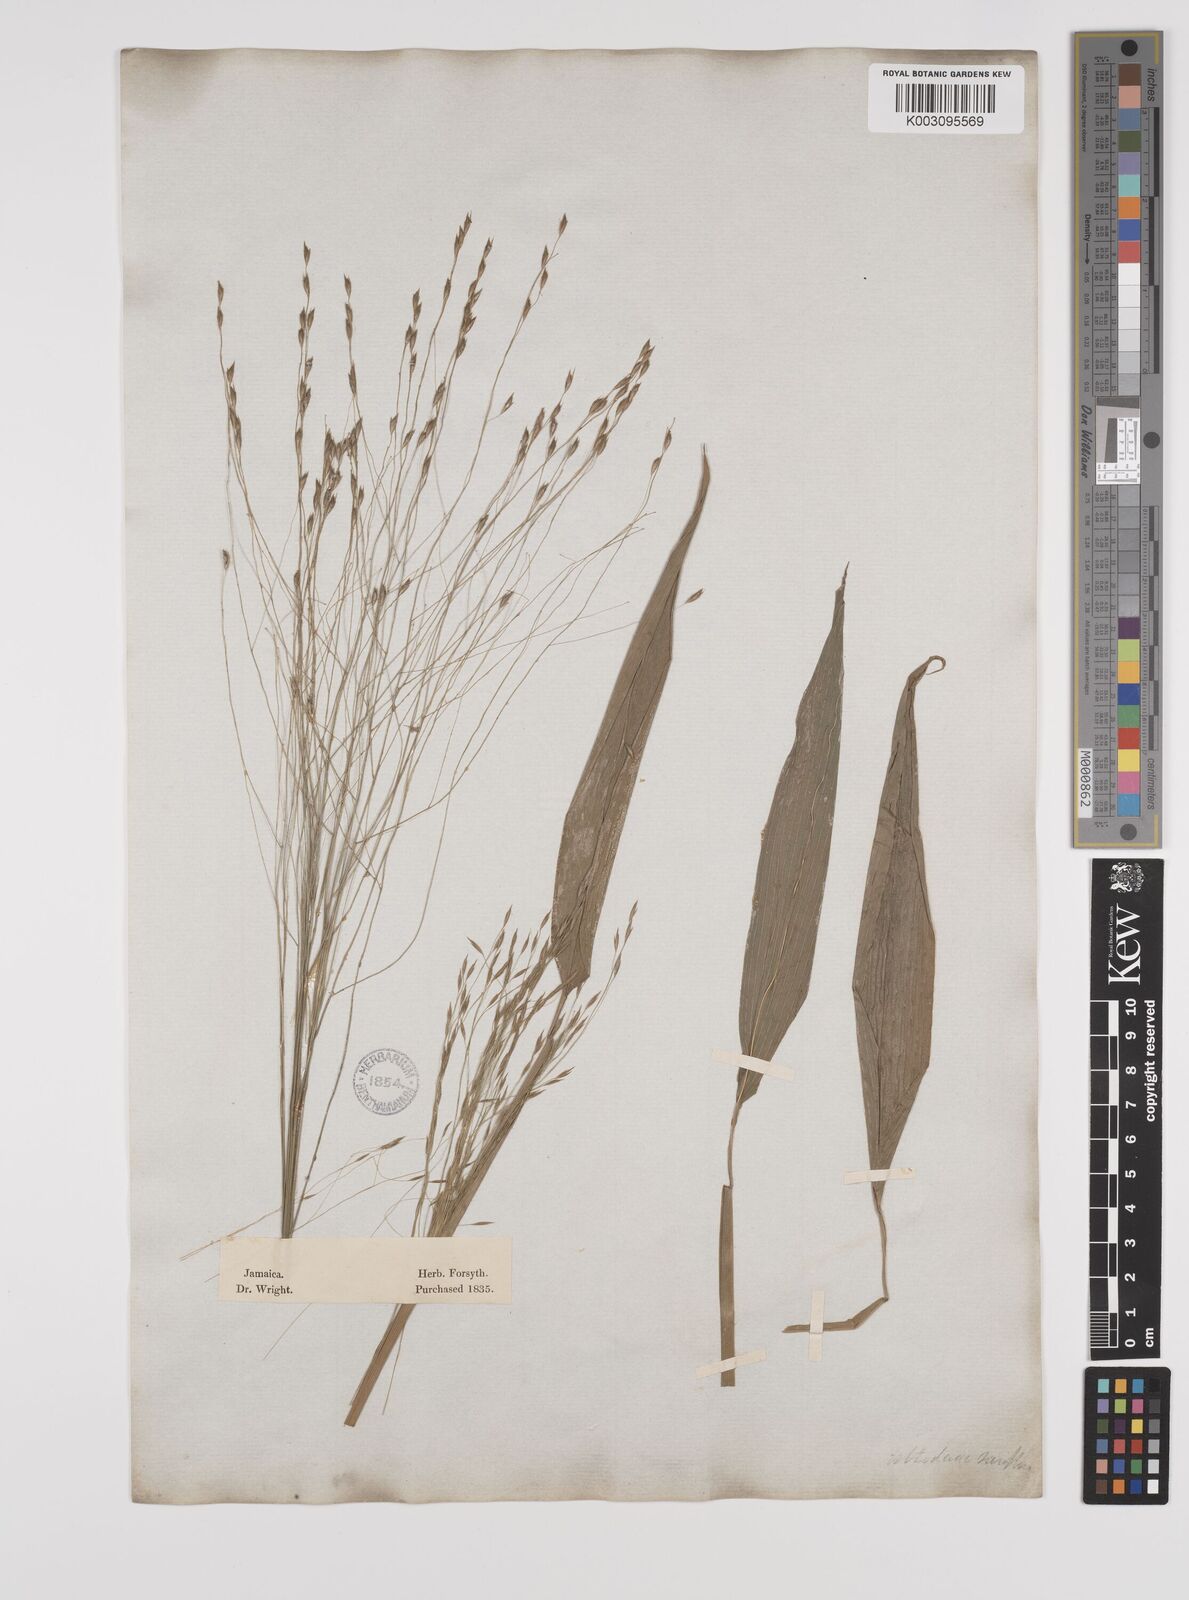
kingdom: Plantae
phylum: Tracheophyta
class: Liliopsida
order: Poales
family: Poaceae
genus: Orthoclada
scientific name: Orthoclada laxa
